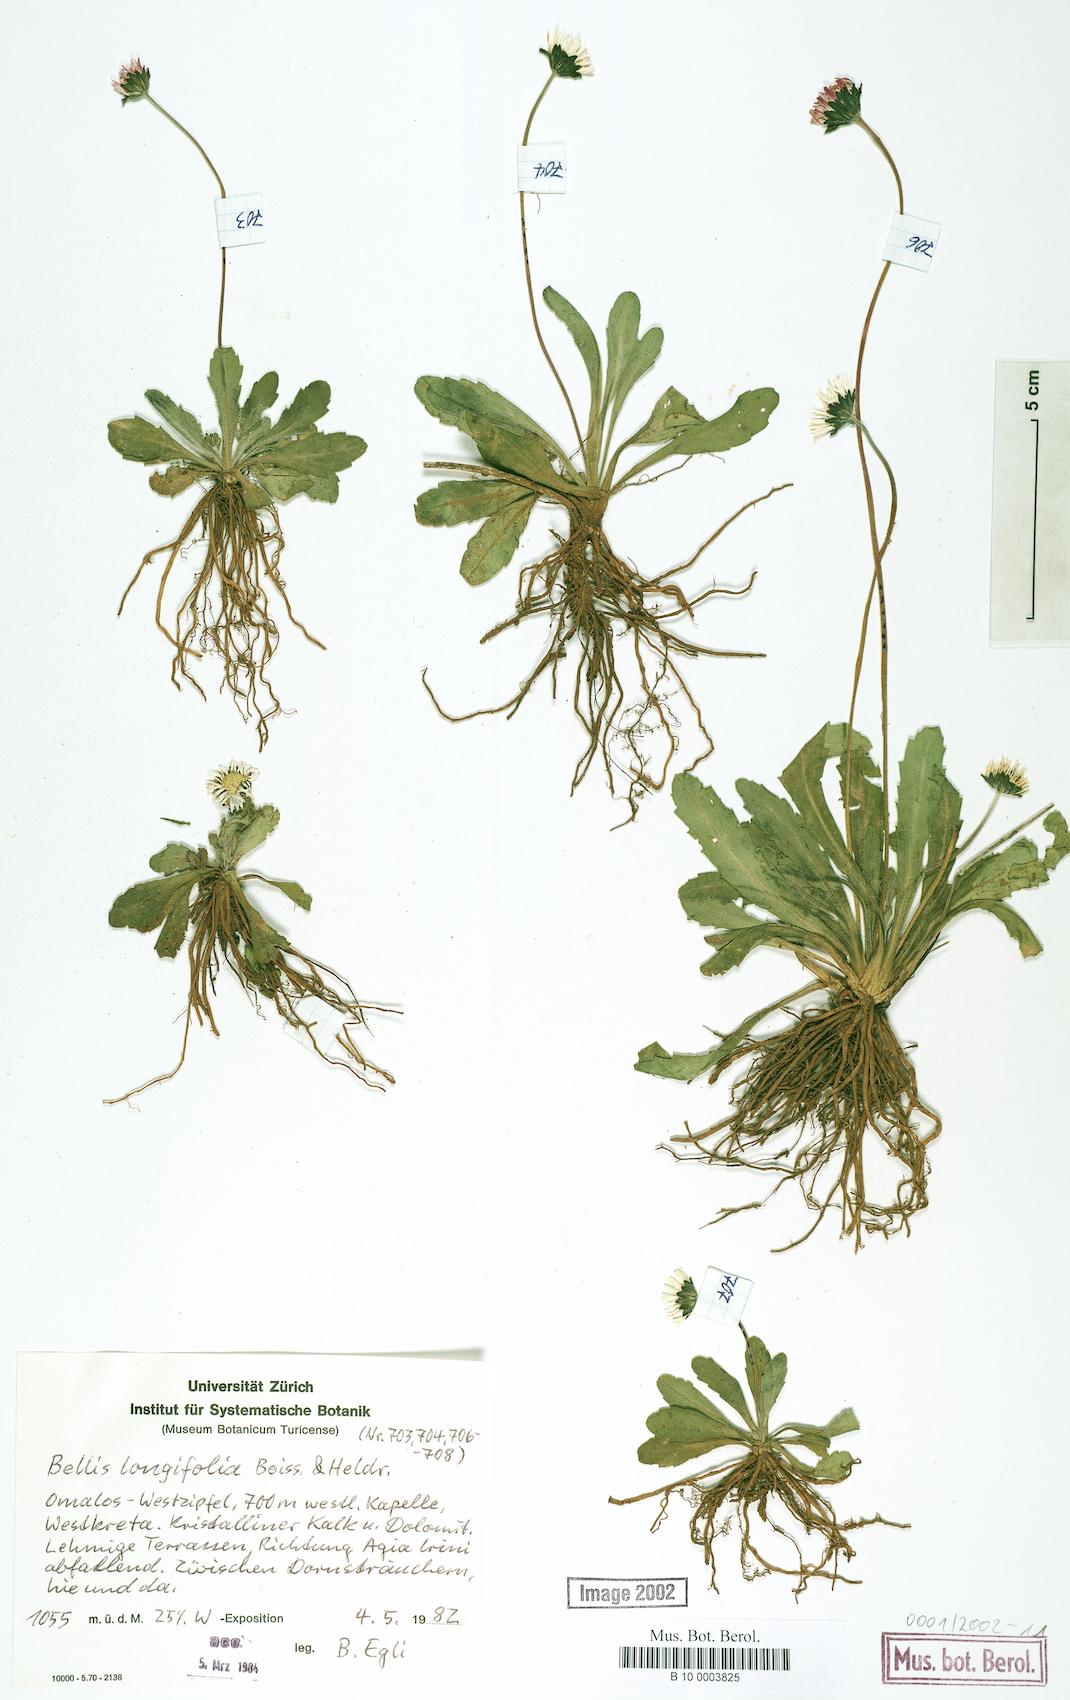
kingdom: Plantae
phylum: Tracheophyta
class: Magnoliopsida
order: Asterales
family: Asteraceae
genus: Bellis
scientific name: Bellis longifolia
